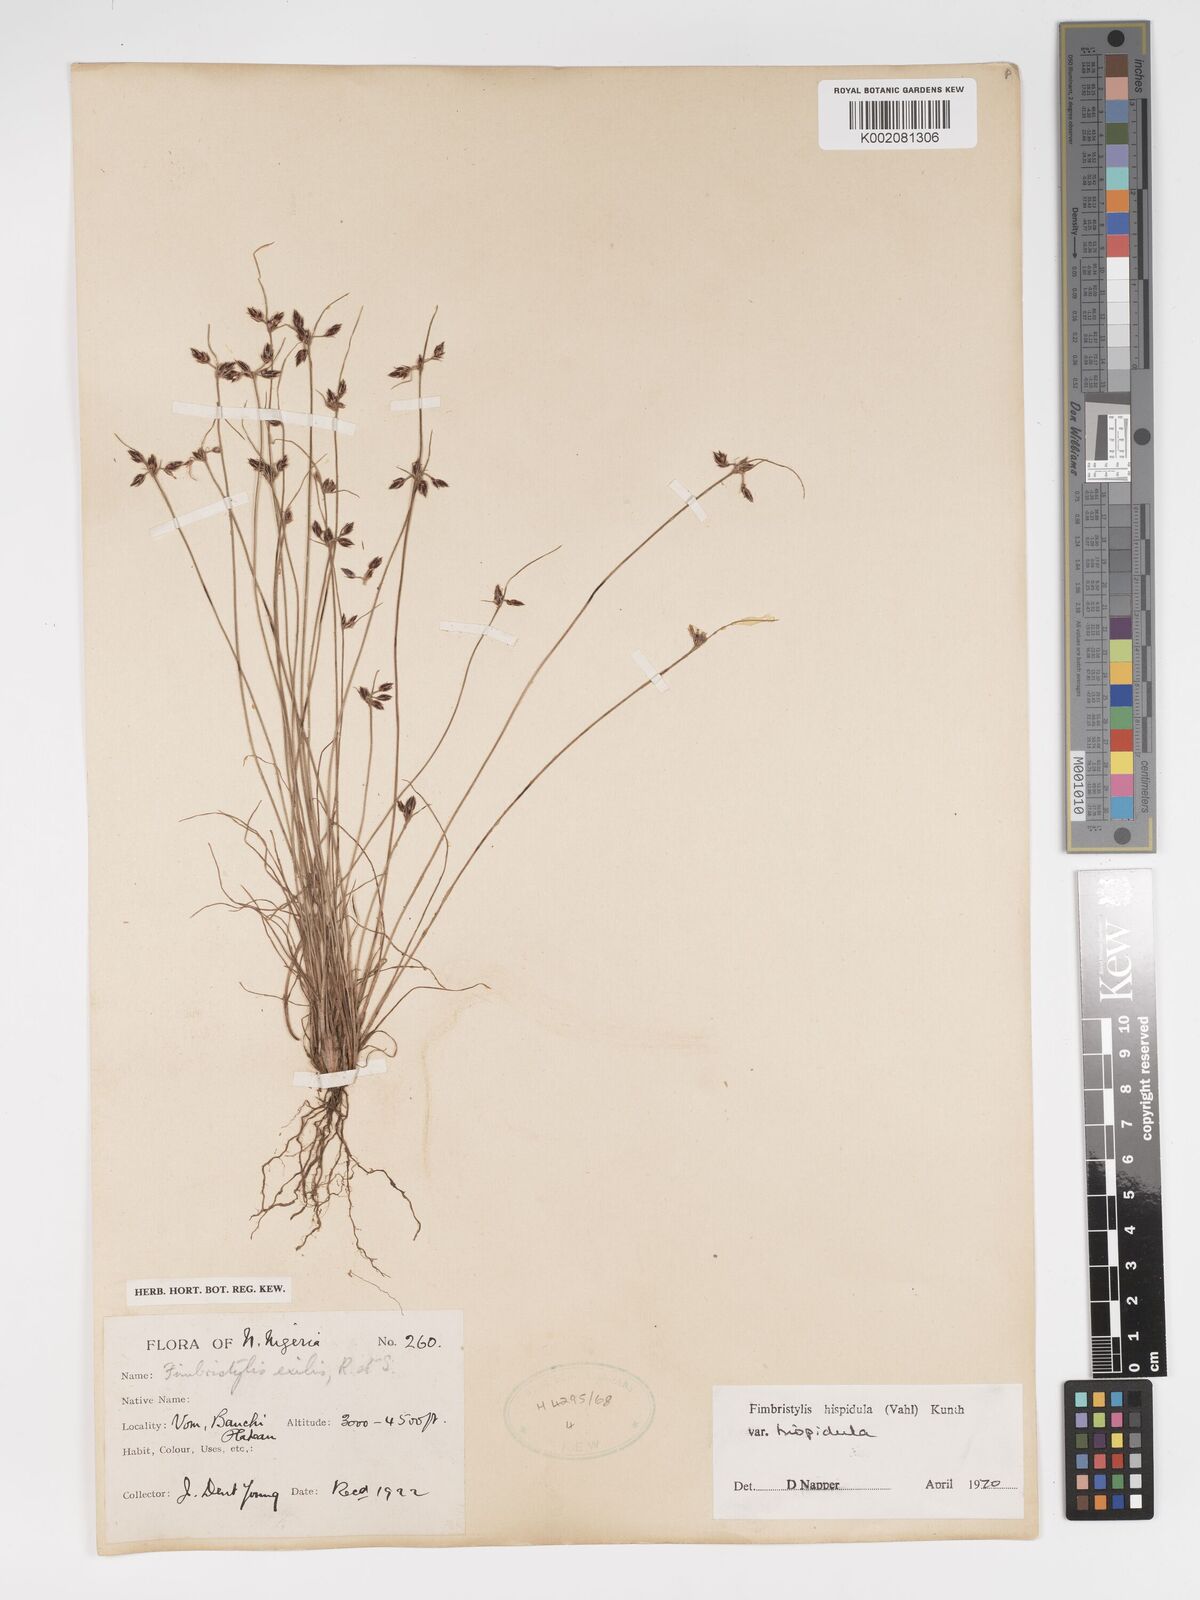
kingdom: Plantae
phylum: Tracheophyta
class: Liliopsida
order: Poales
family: Cyperaceae
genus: Bulbostylis
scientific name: Bulbostylis hispidula
